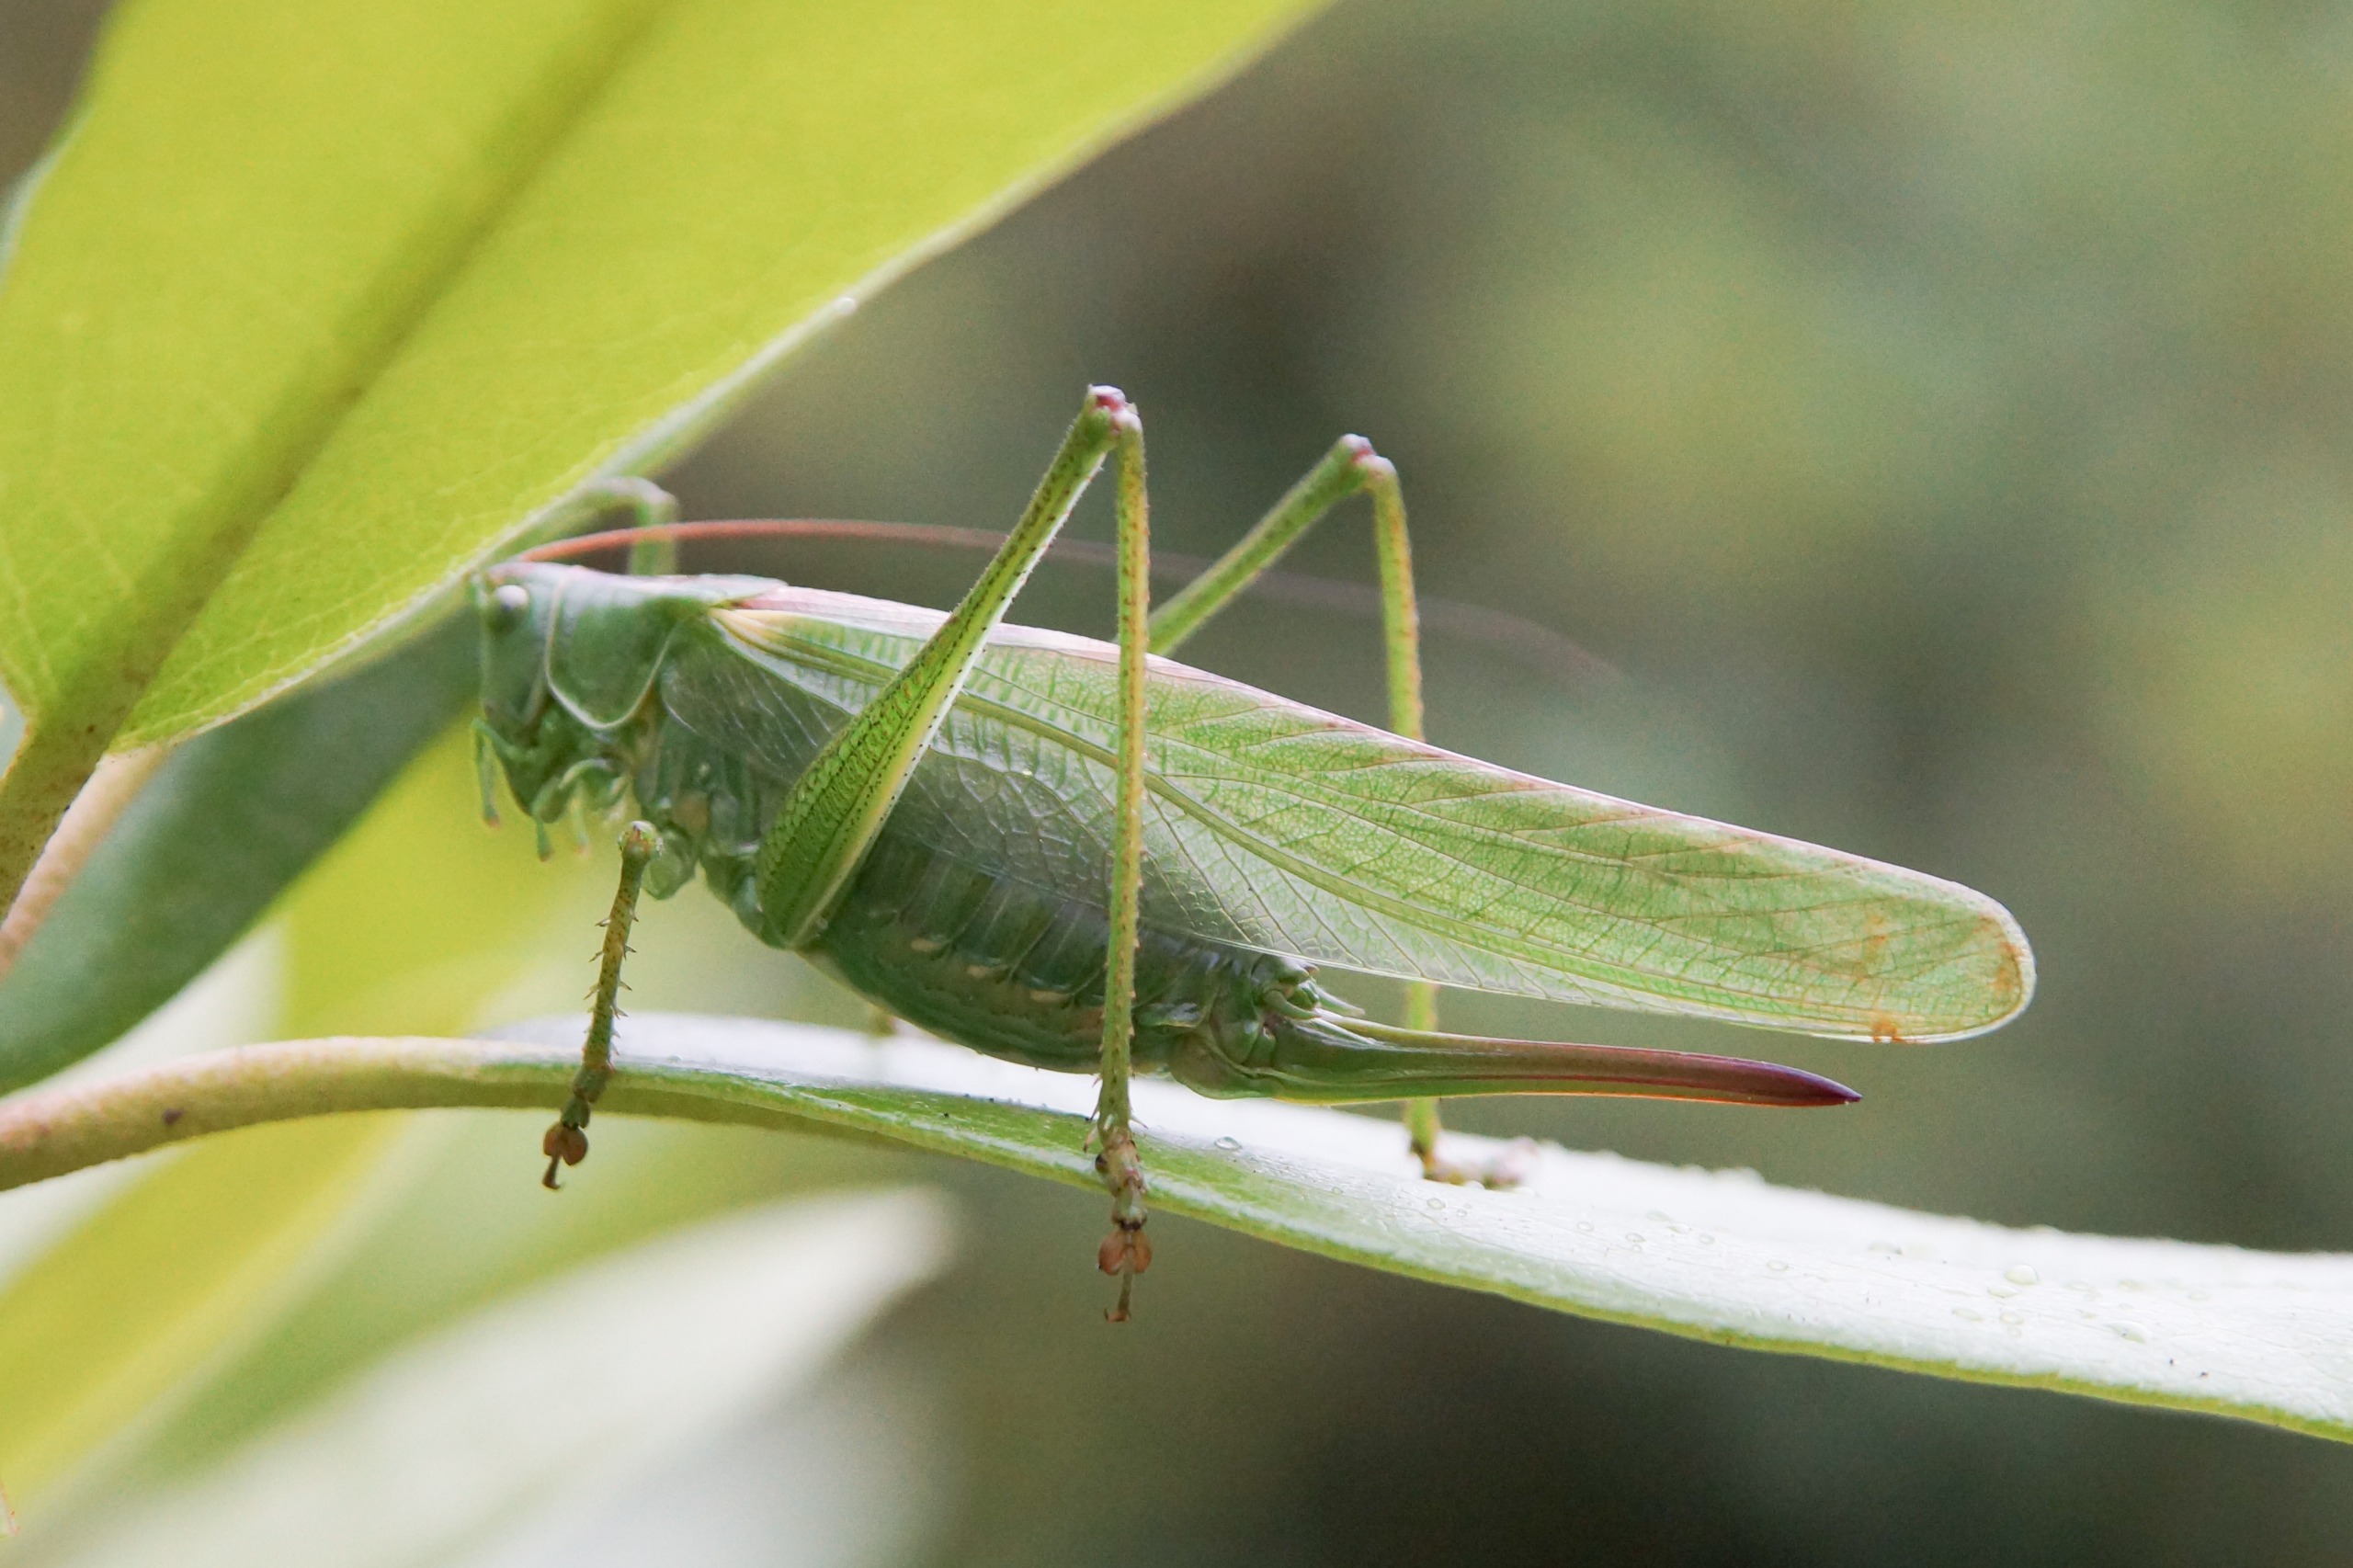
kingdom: Animalia
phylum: Arthropoda
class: Insecta
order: Orthoptera
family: Tettigoniidae
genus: Tettigonia
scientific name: Tettigonia viridissima
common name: Stor grøn løvgræshoppe
